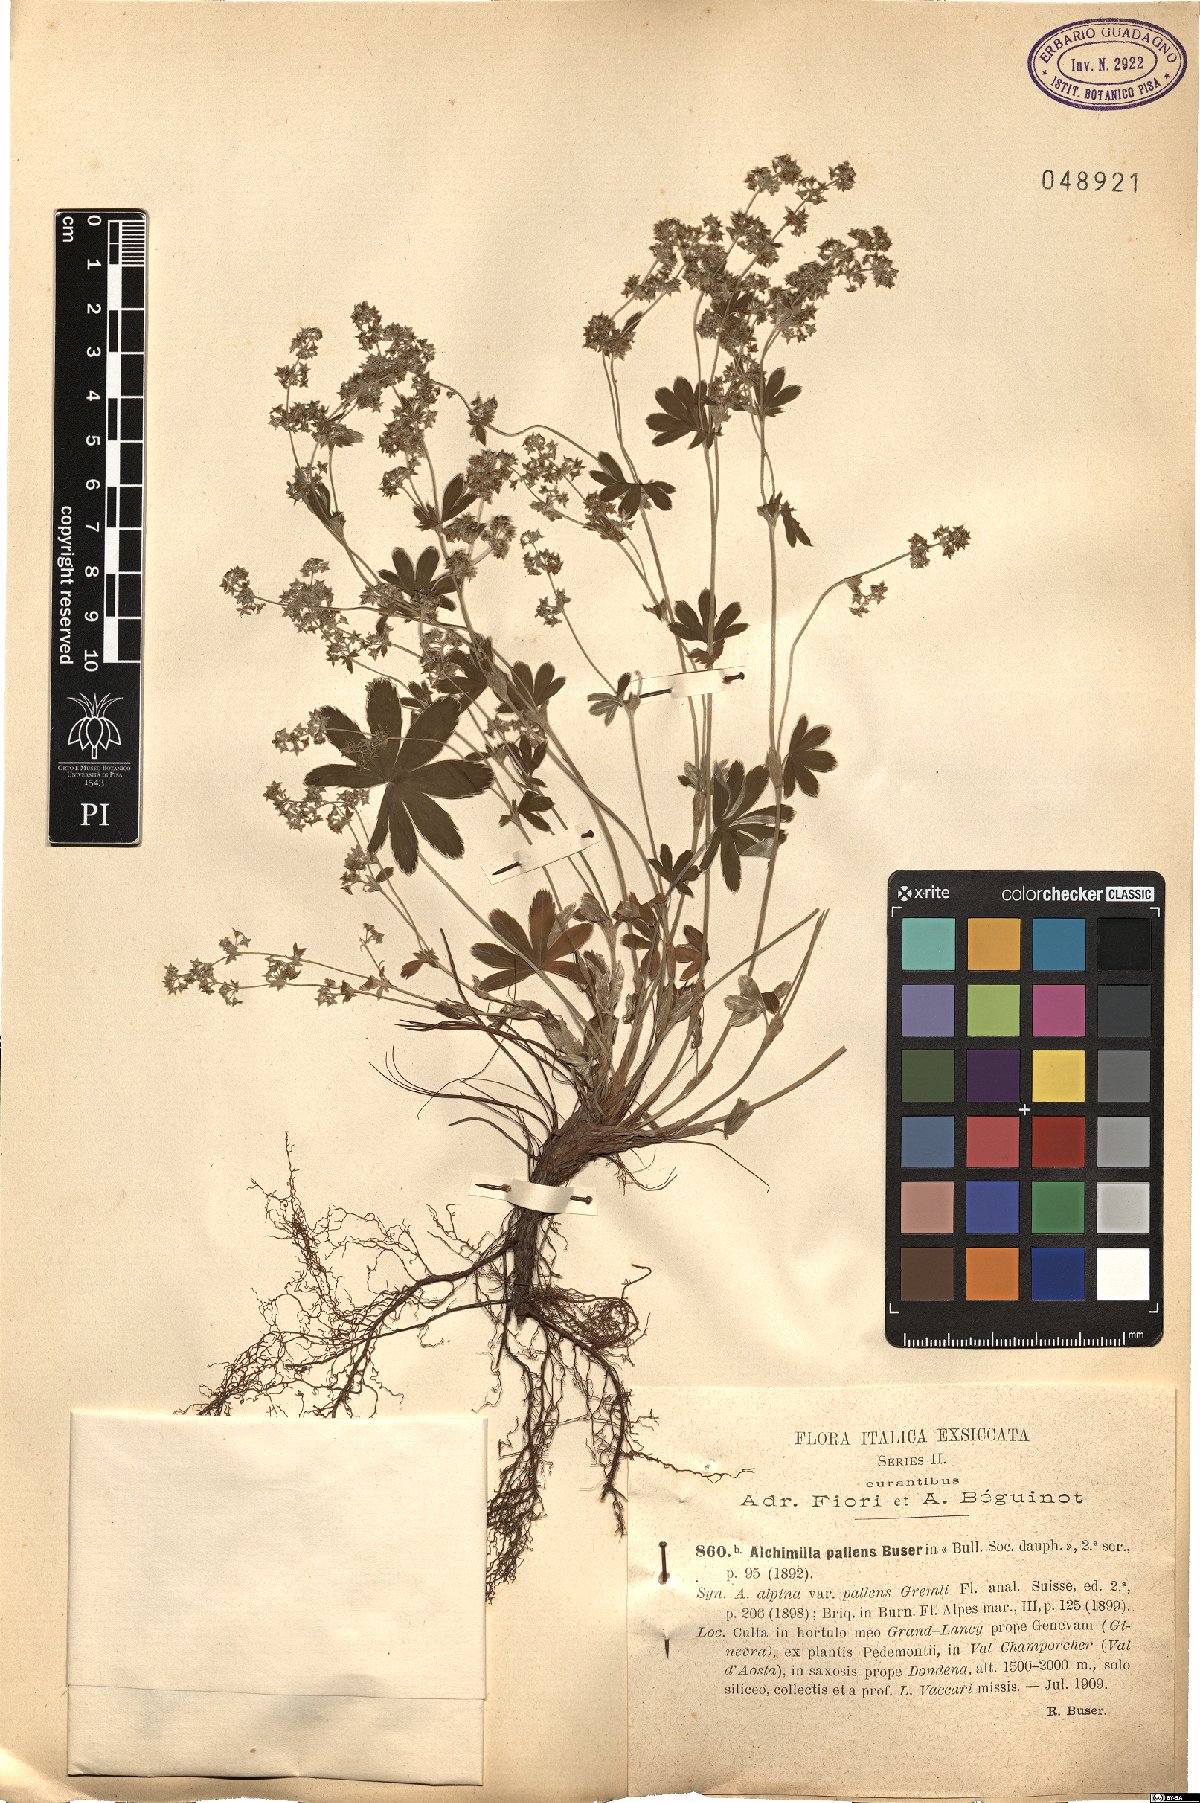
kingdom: Plantae
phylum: Tracheophyta
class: Magnoliopsida
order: Rosales
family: Rosaceae
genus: Alchemilla
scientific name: Alchemilla pallens
